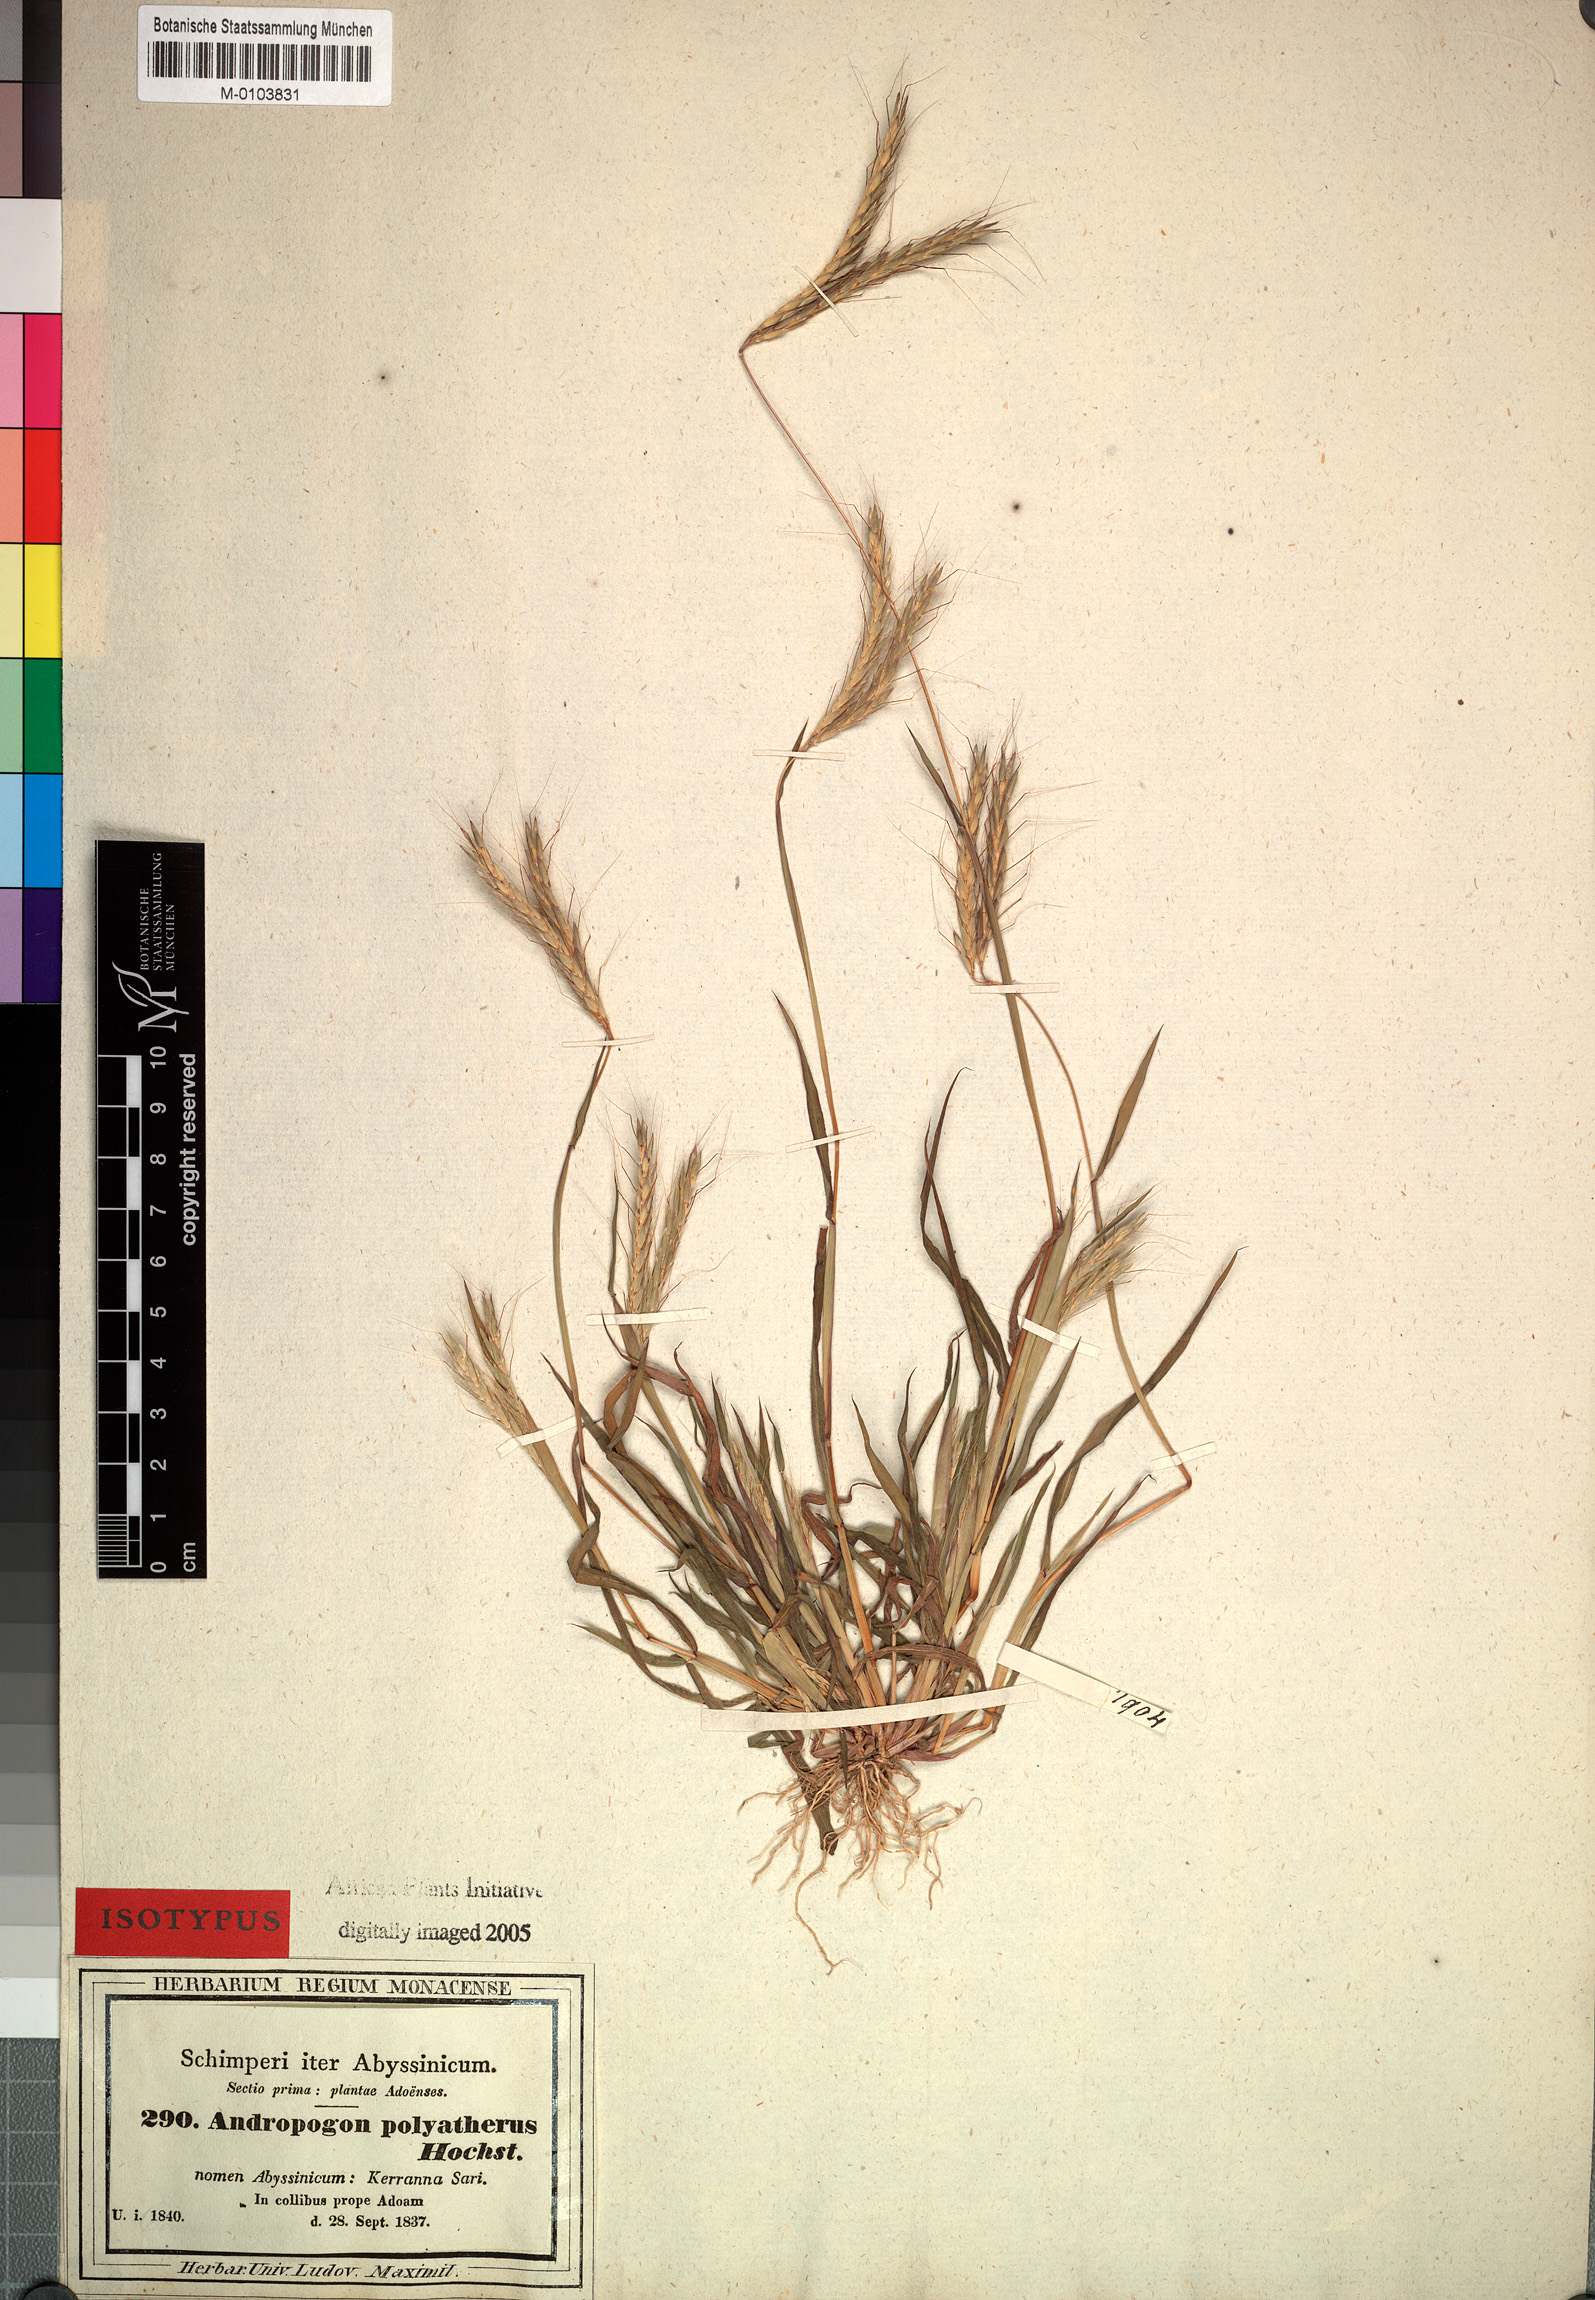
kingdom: Plantae
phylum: Tracheophyta
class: Liliopsida
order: Poales
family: Poaceae
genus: Andropogon
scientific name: Andropogon abyssinicus
